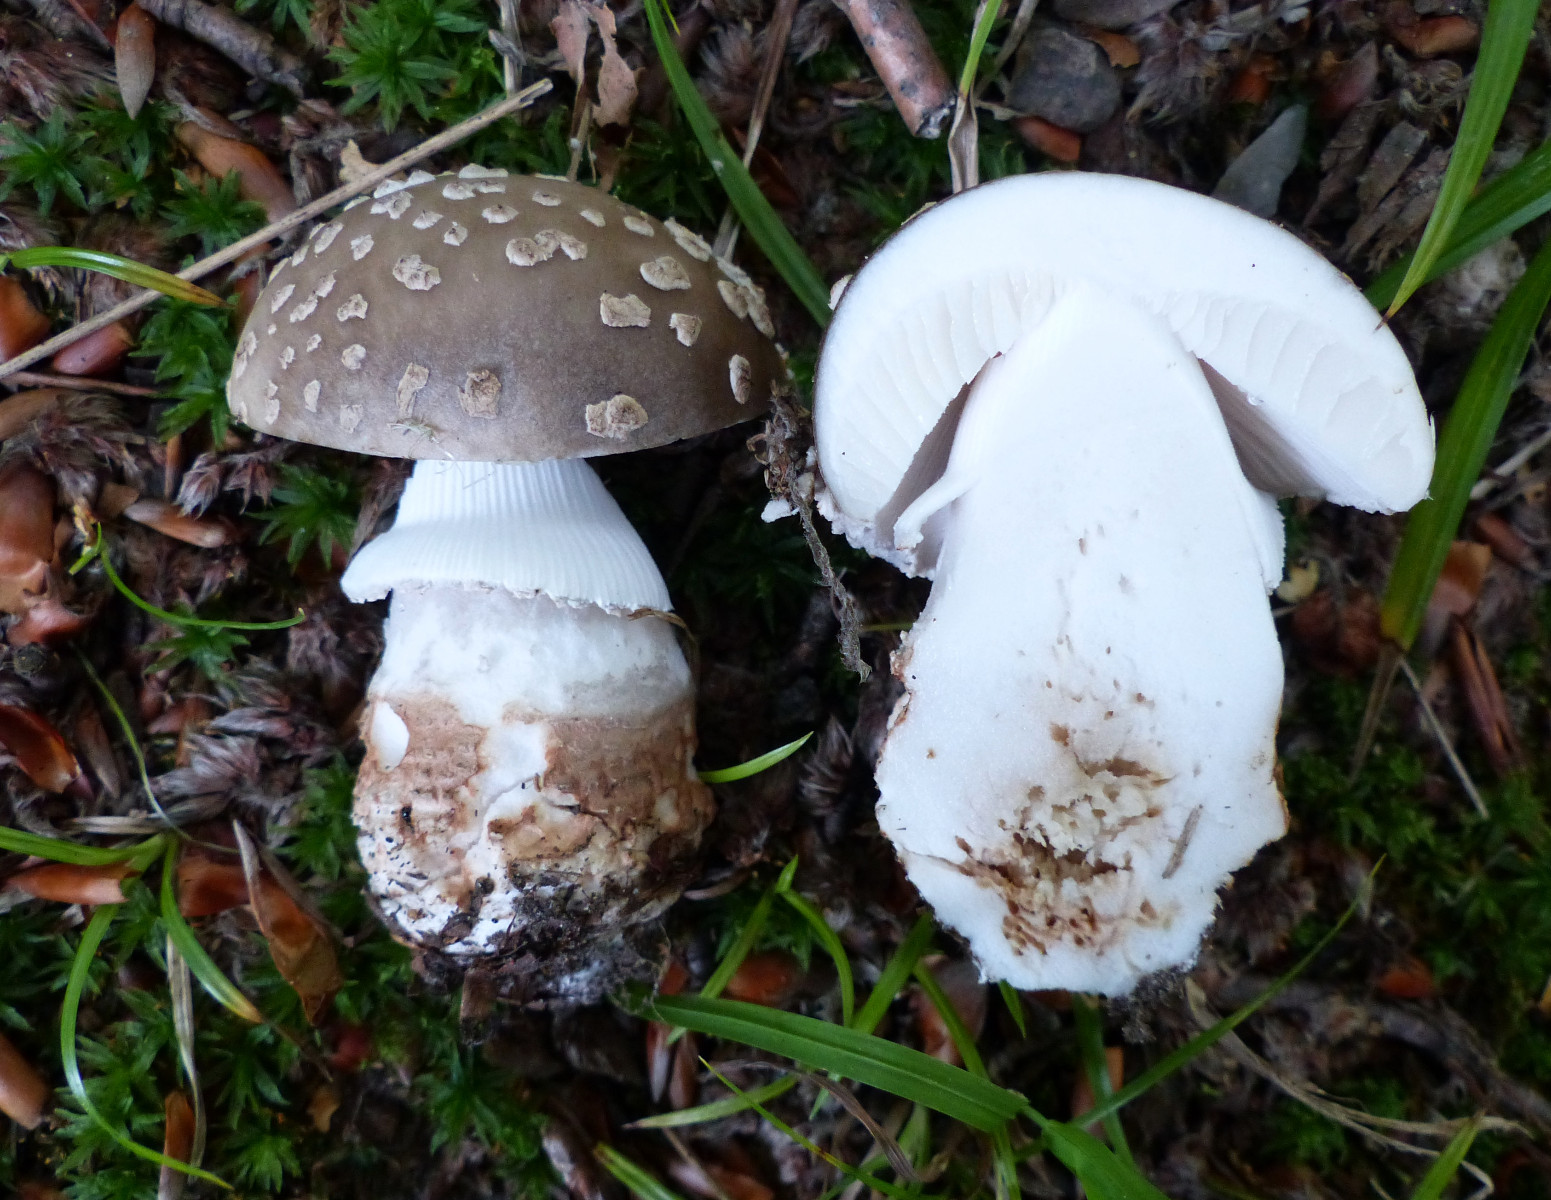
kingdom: Fungi
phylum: Basidiomycota
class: Agaricomycetes
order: Agaricales
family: Amanitaceae
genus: Amanita
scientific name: Amanita
